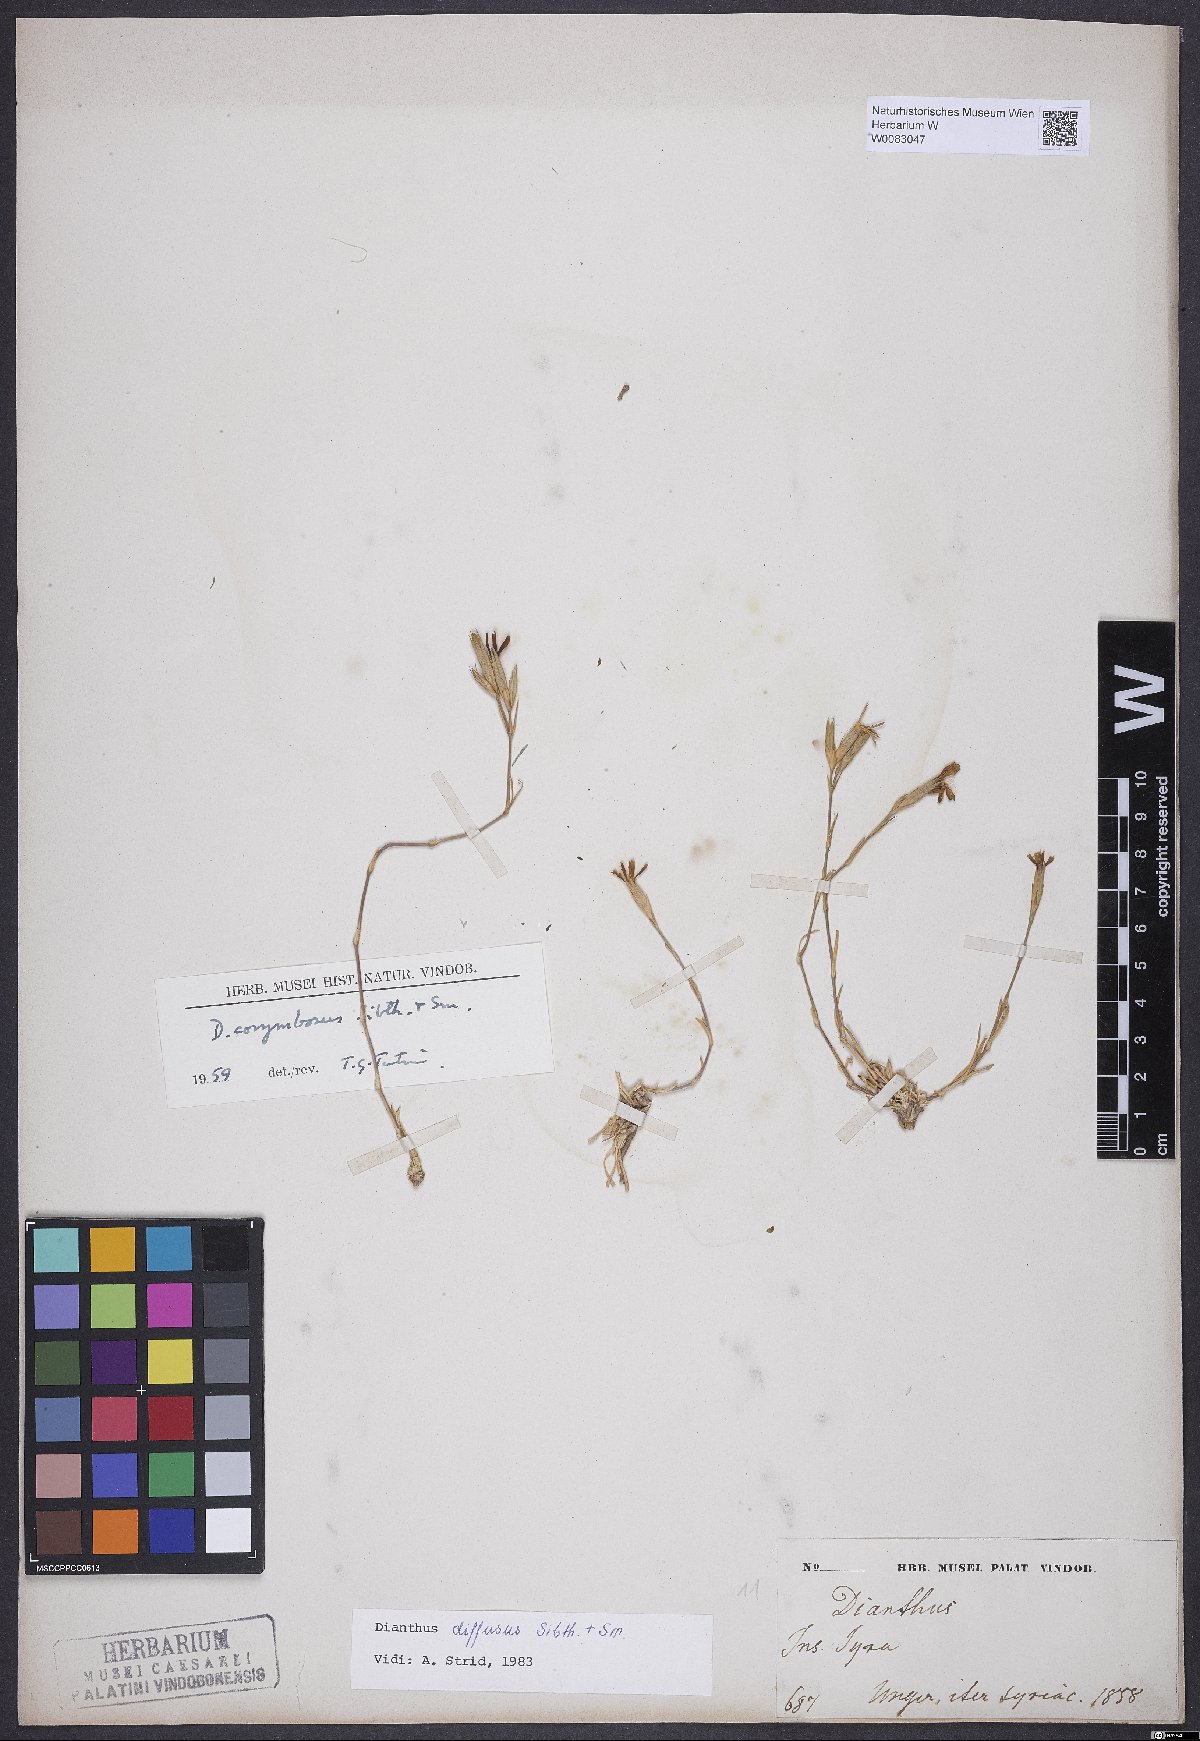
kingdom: Plantae
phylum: Tracheophyta
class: Magnoliopsida
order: Caryophyllales
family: Caryophyllaceae
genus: Dianthus
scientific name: Dianthus diffusus
